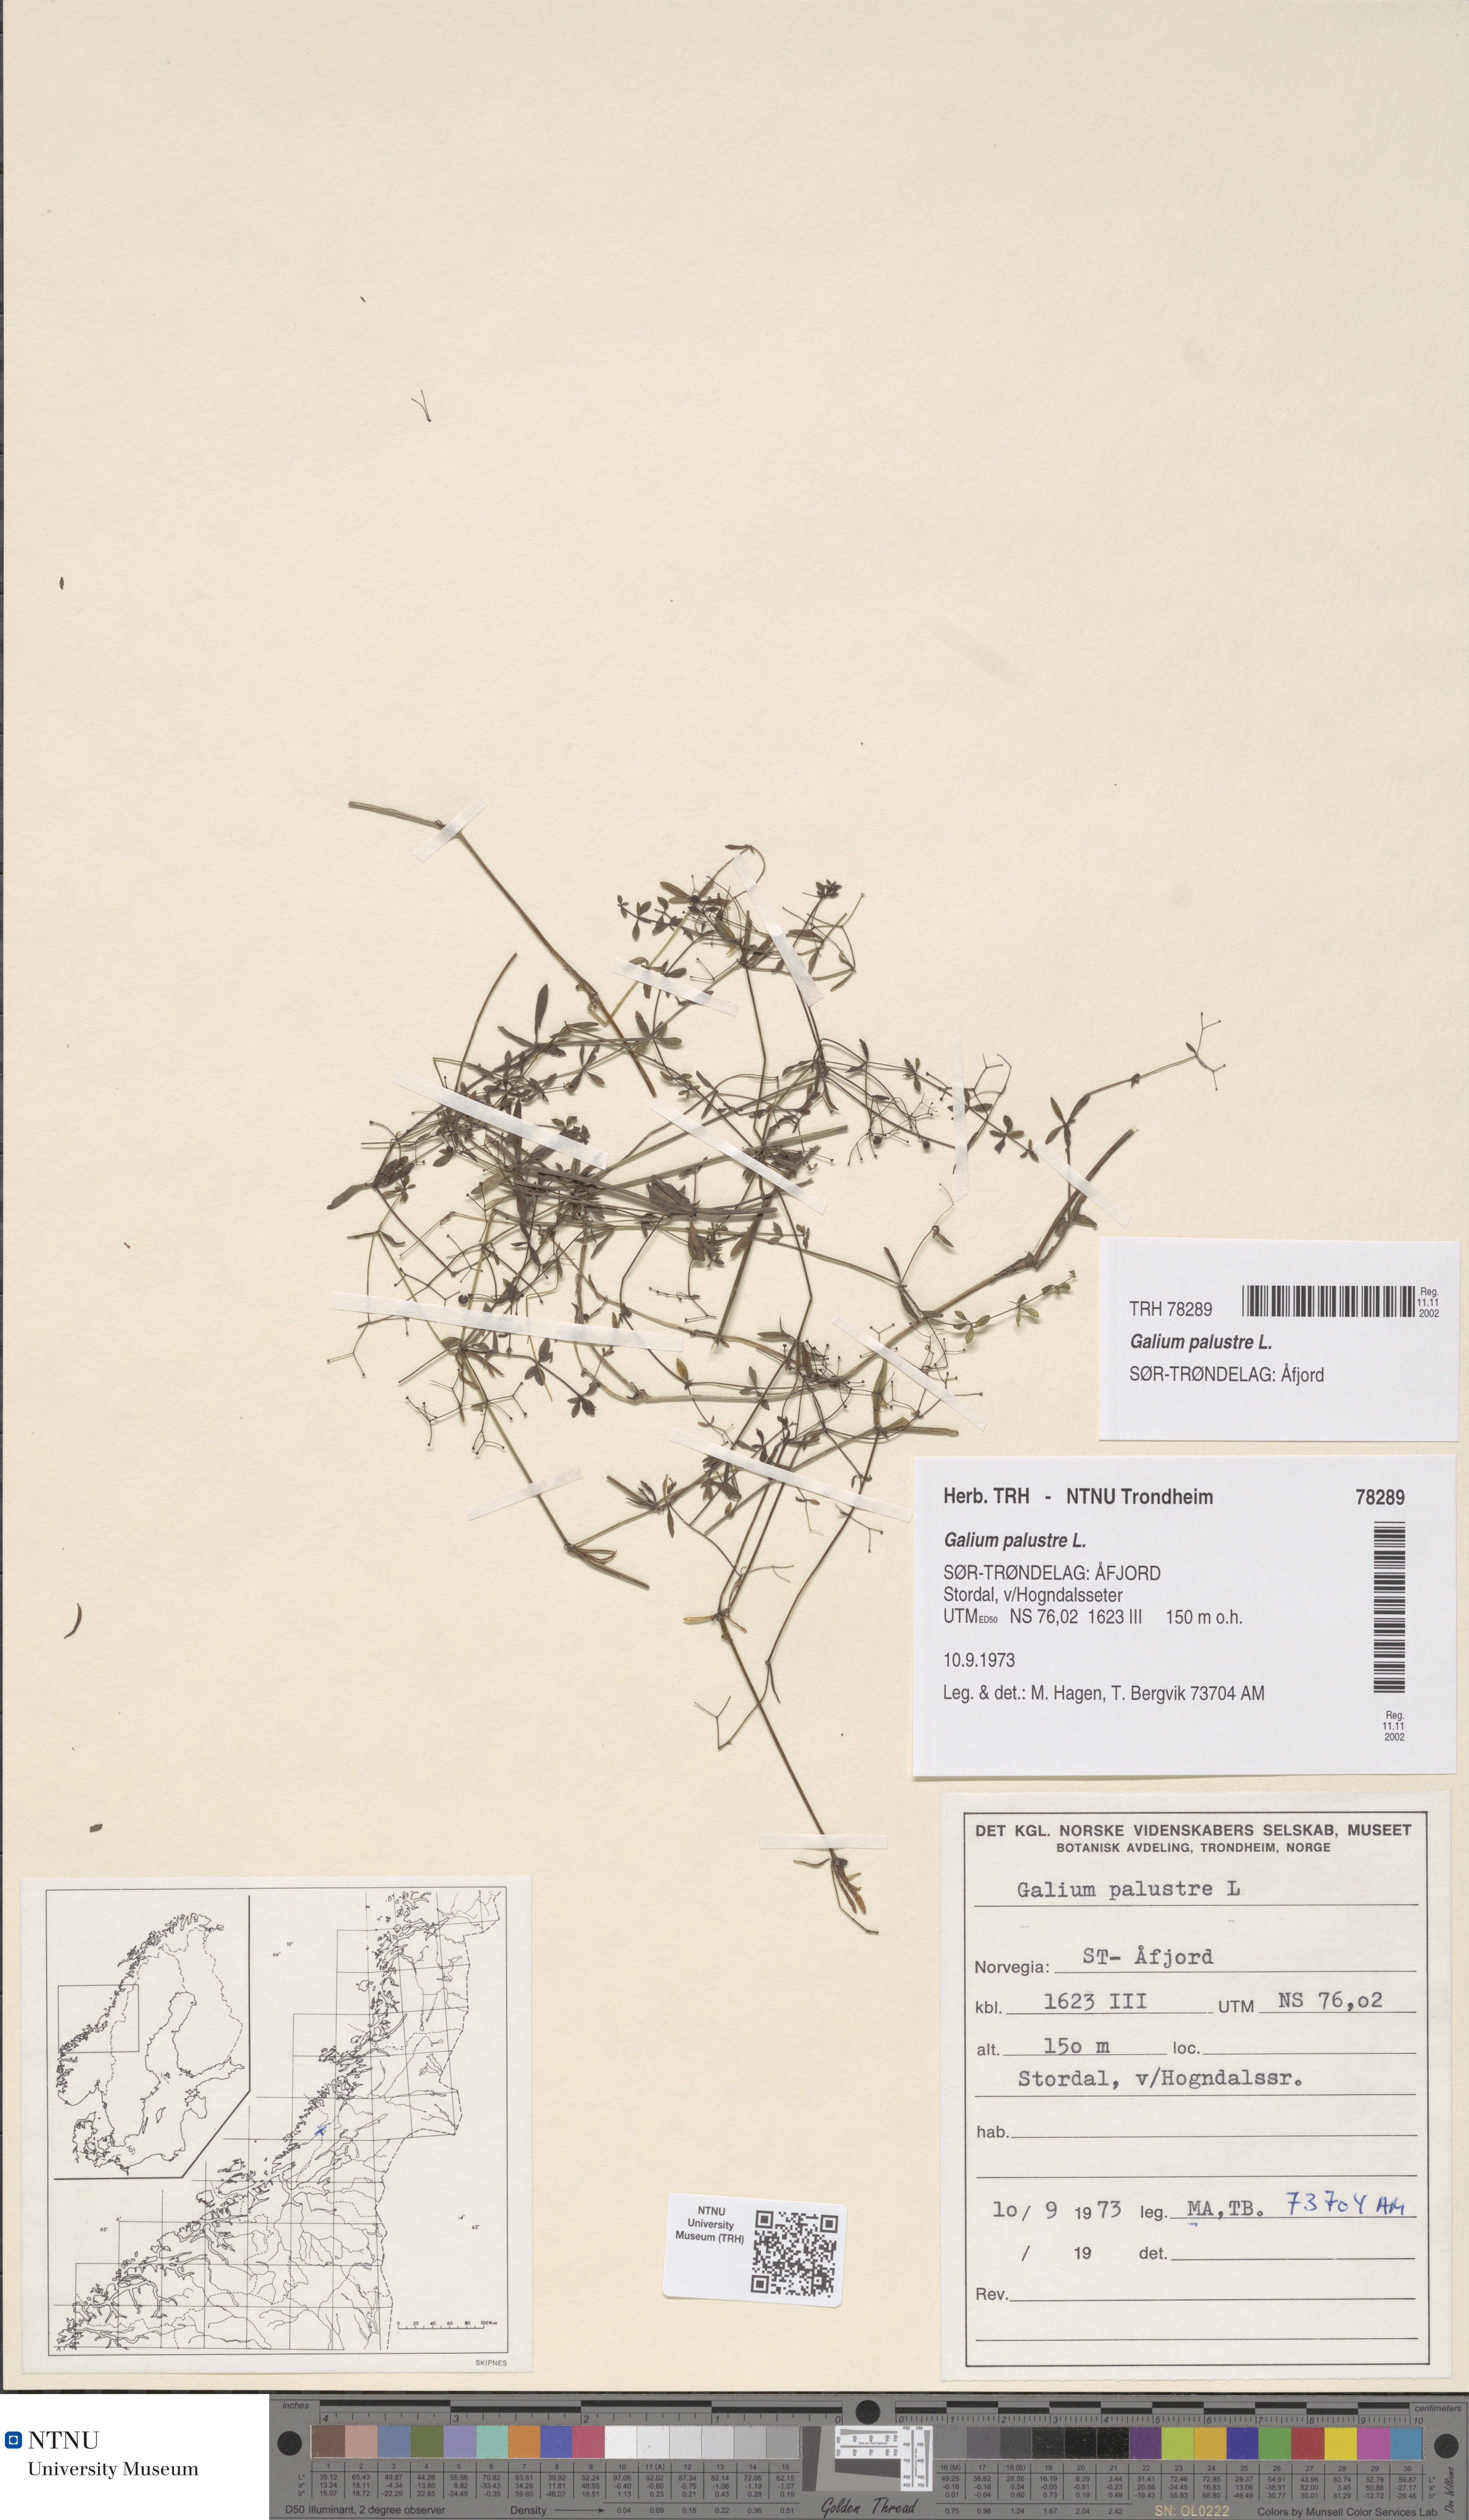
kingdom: Plantae
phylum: Tracheophyta
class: Magnoliopsida
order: Gentianales
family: Rubiaceae
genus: Galium
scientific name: Galium palustre
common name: Common marsh-bedstraw
